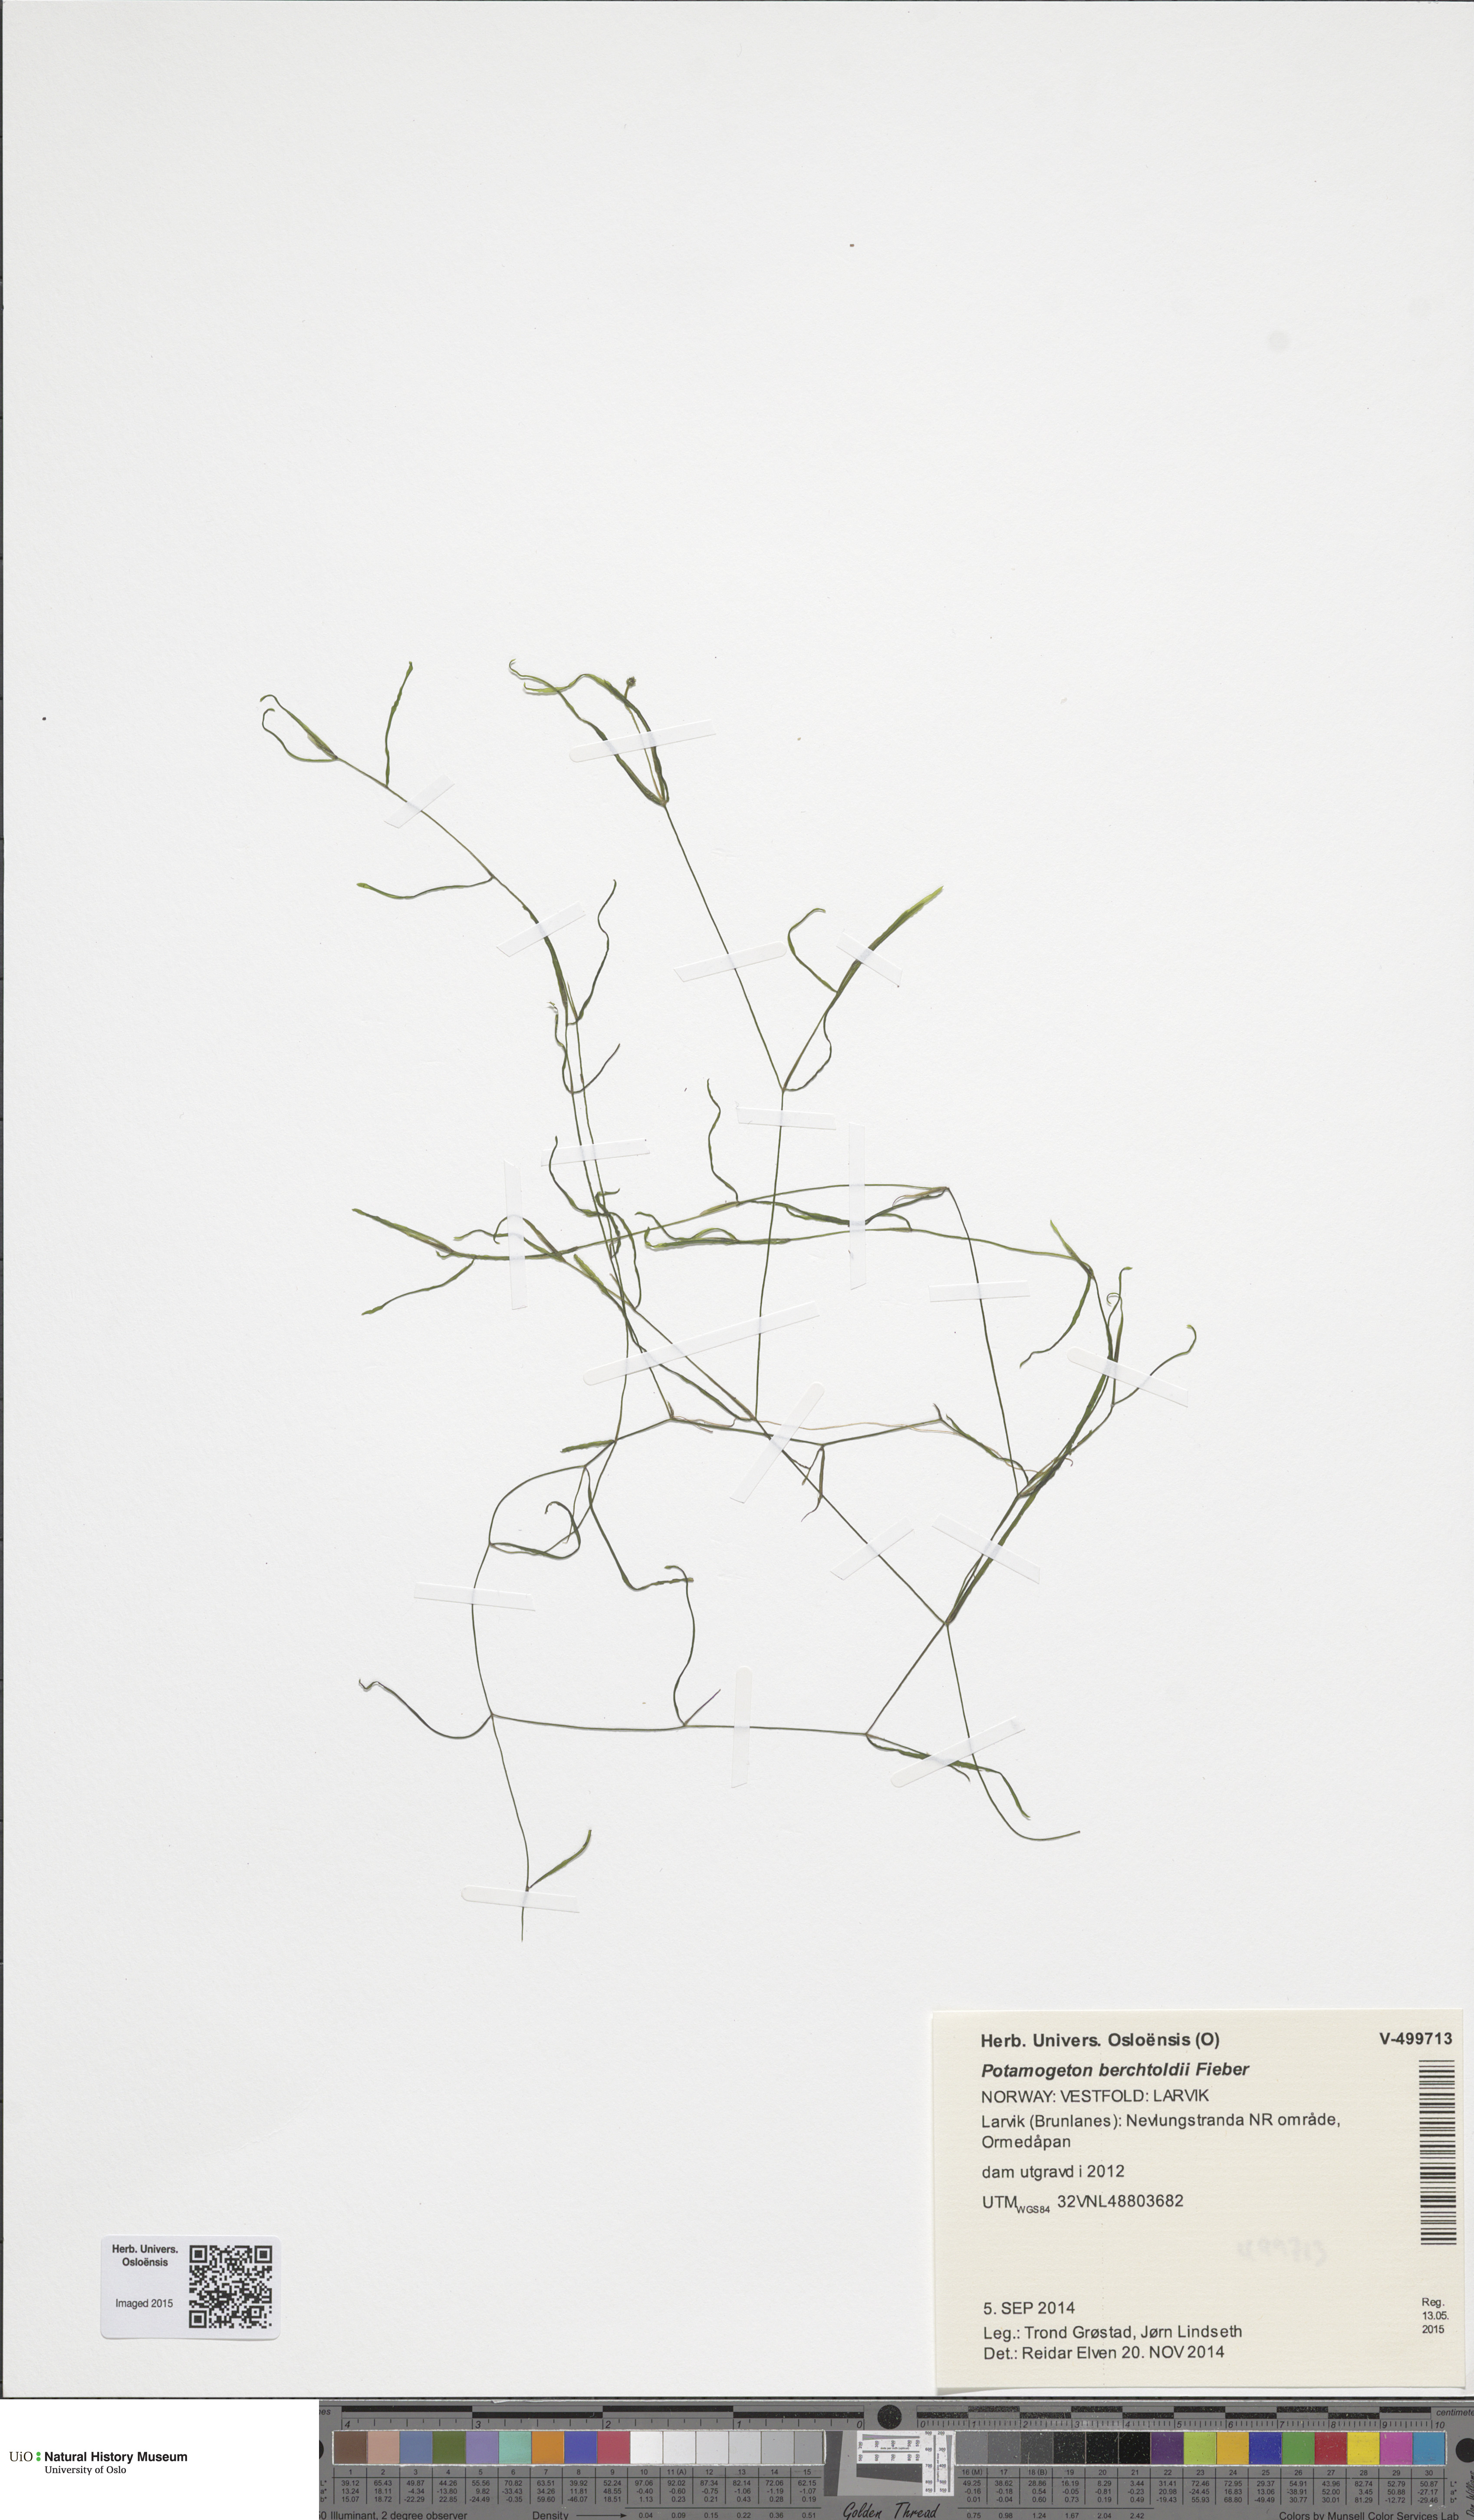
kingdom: Plantae
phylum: Tracheophyta
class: Liliopsida
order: Alismatales
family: Potamogetonaceae
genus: Potamogeton
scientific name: Potamogeton berchtoldii
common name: Small pondweed
